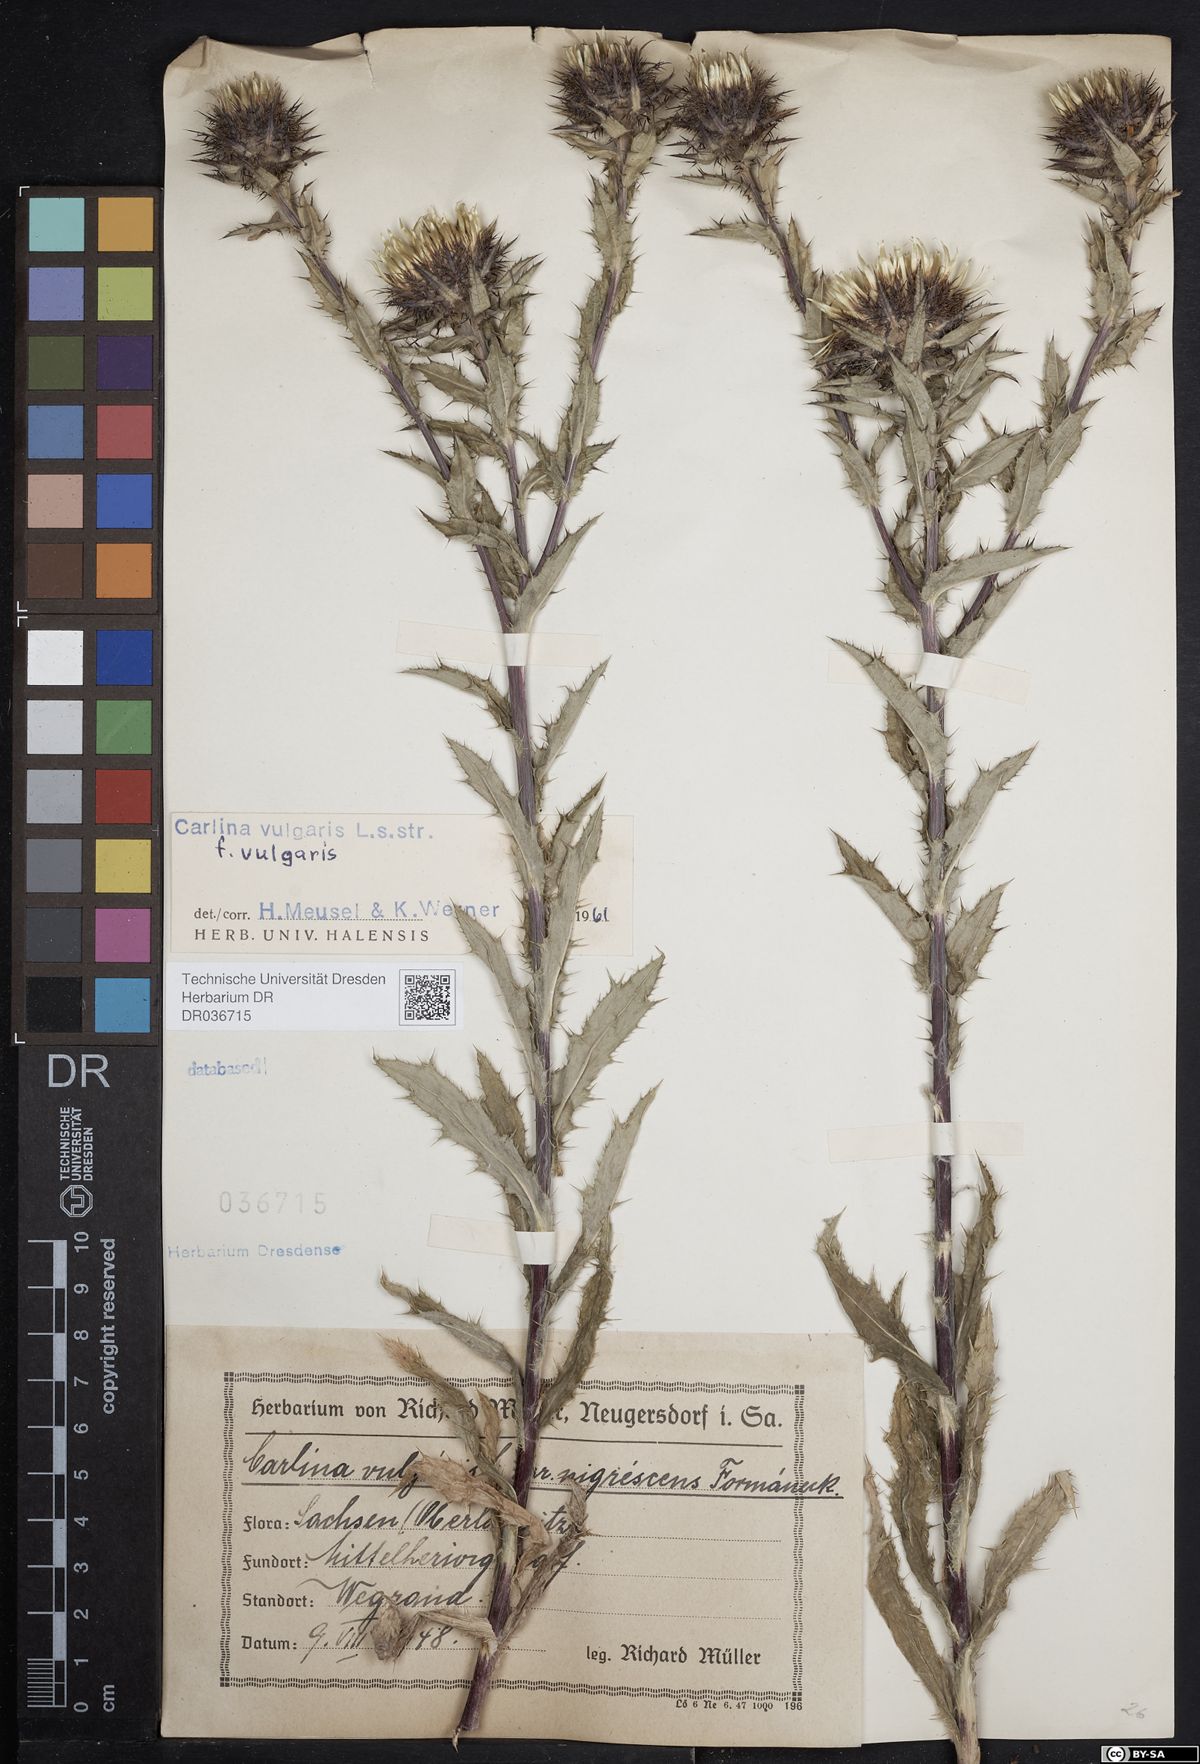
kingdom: Plantae
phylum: Tracheophyta
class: Magnoliopsida
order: Asterales
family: Asteraceae
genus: Carlina
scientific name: Carlina vulgaris
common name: Carline thistle
